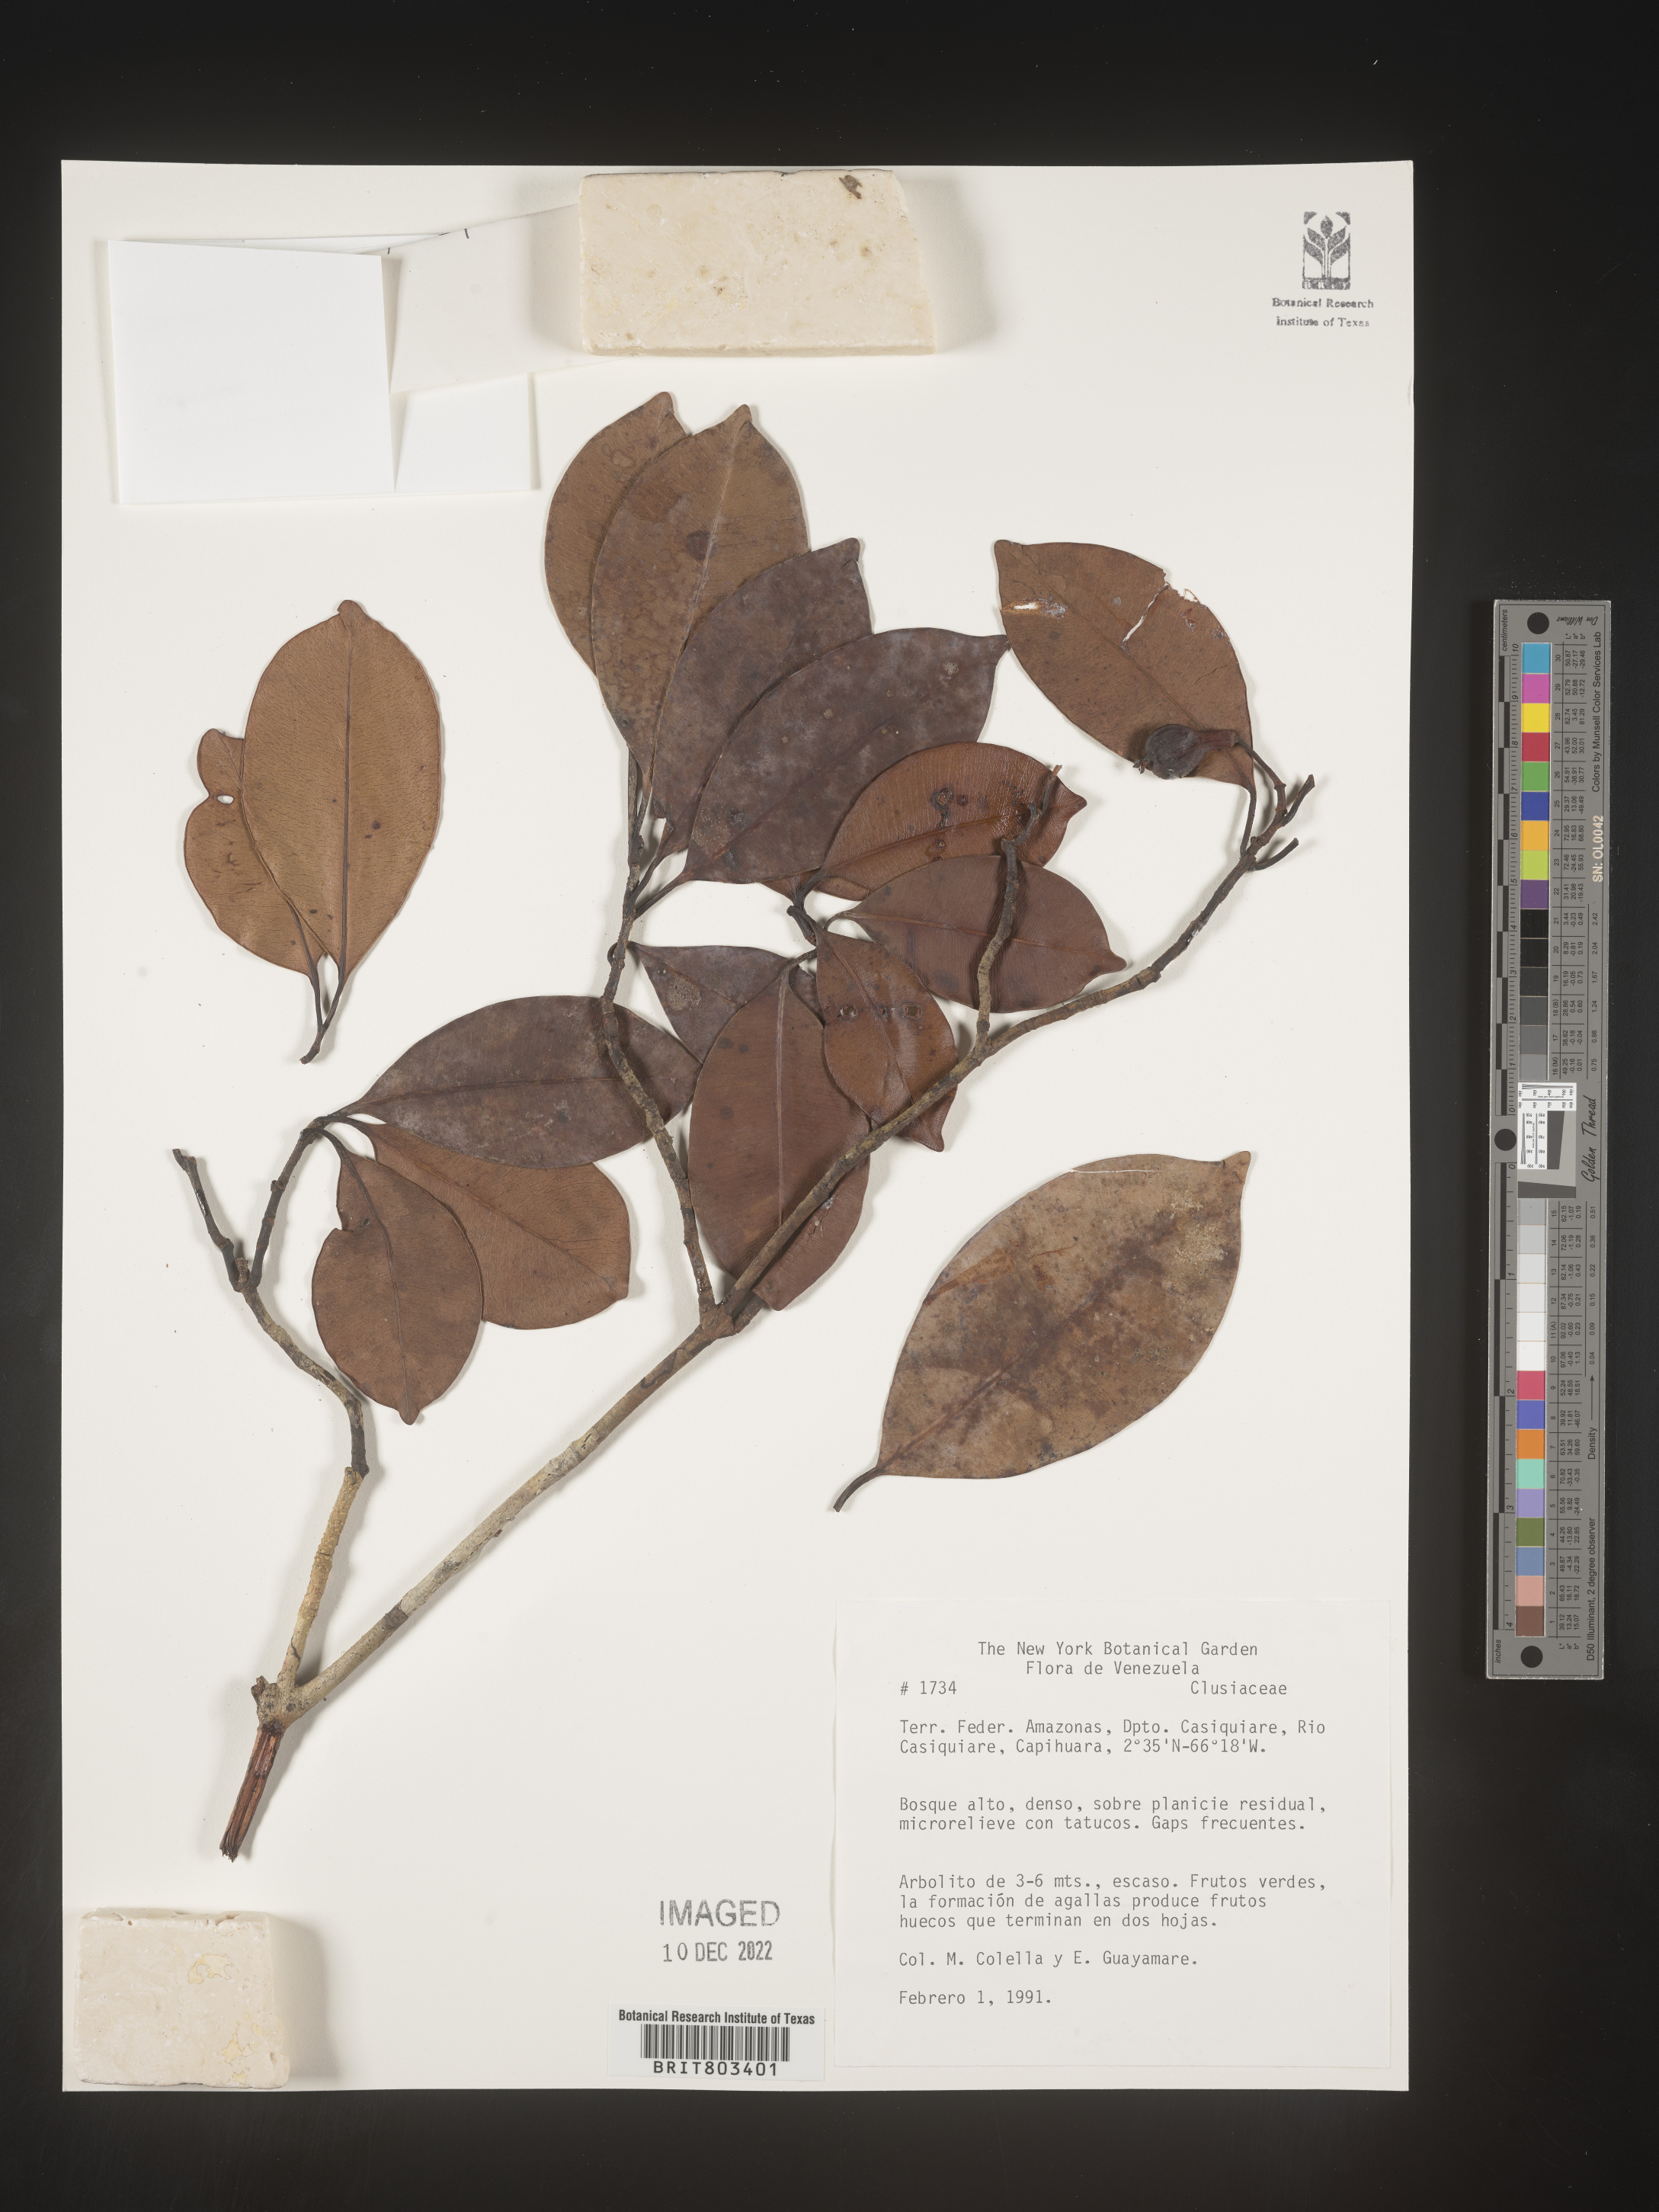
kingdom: Plantae
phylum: Tracheophyta
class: Magnoliopsida
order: Malpighiales
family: Clusiaceae
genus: Tovomita
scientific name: Tovomita
